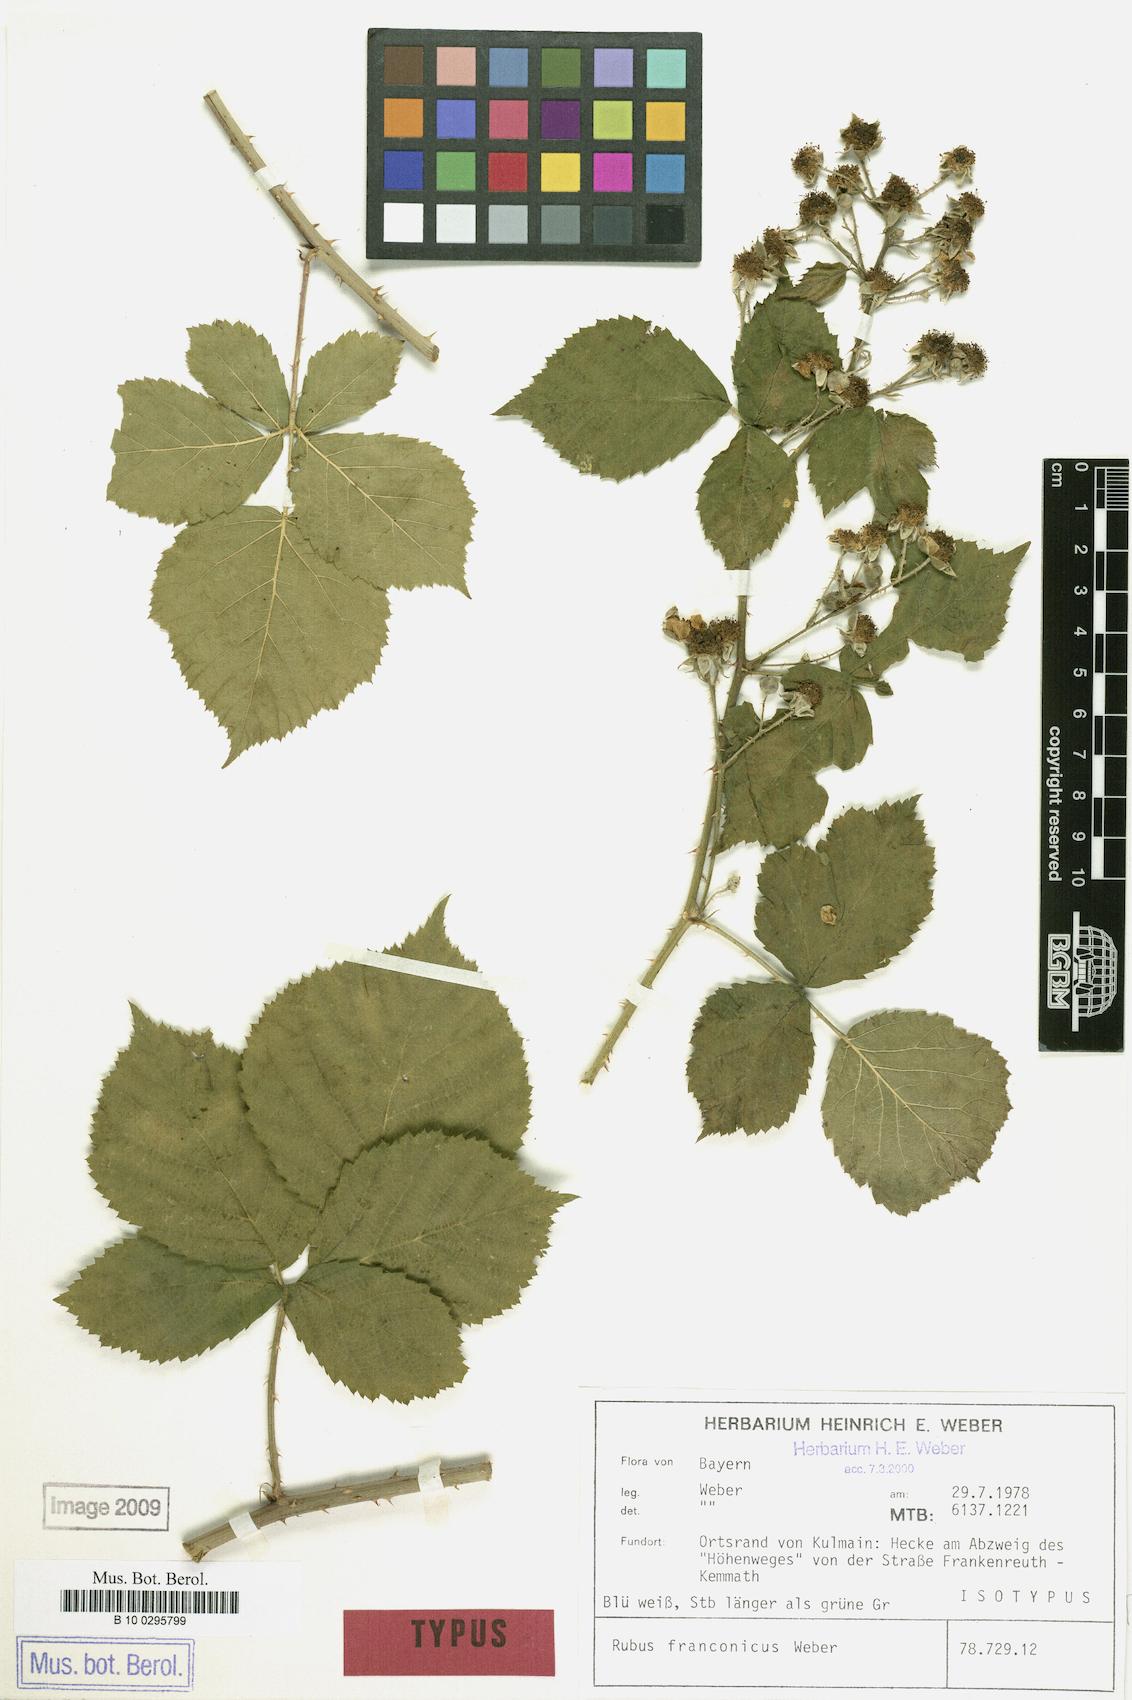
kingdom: Plantae
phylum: Tracheophyta
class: Magnoliopsida
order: Rosales
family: Rosaceae
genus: Rubus
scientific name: Rubus franconicus
